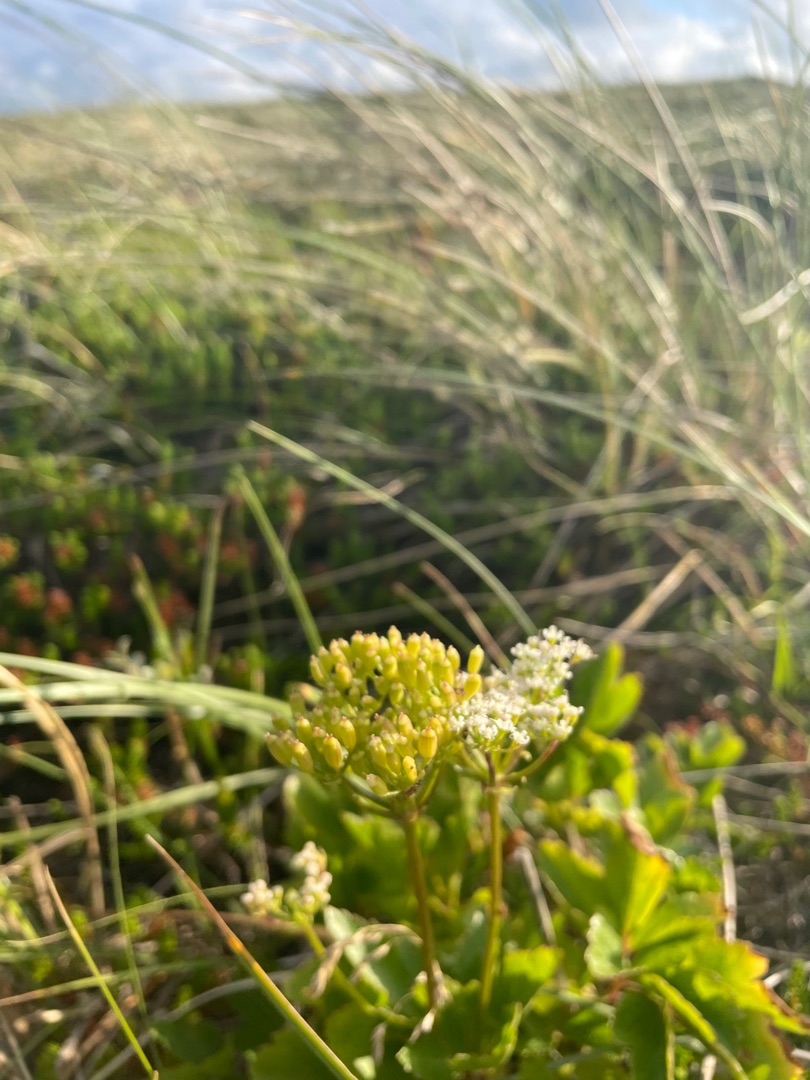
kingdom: Plantae
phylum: Tracheophyta
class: Magnoliopsida
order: Apiales
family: Apiaceae
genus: Ligusticum
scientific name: Ligusticum scothicum
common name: Skotsk lostilk
